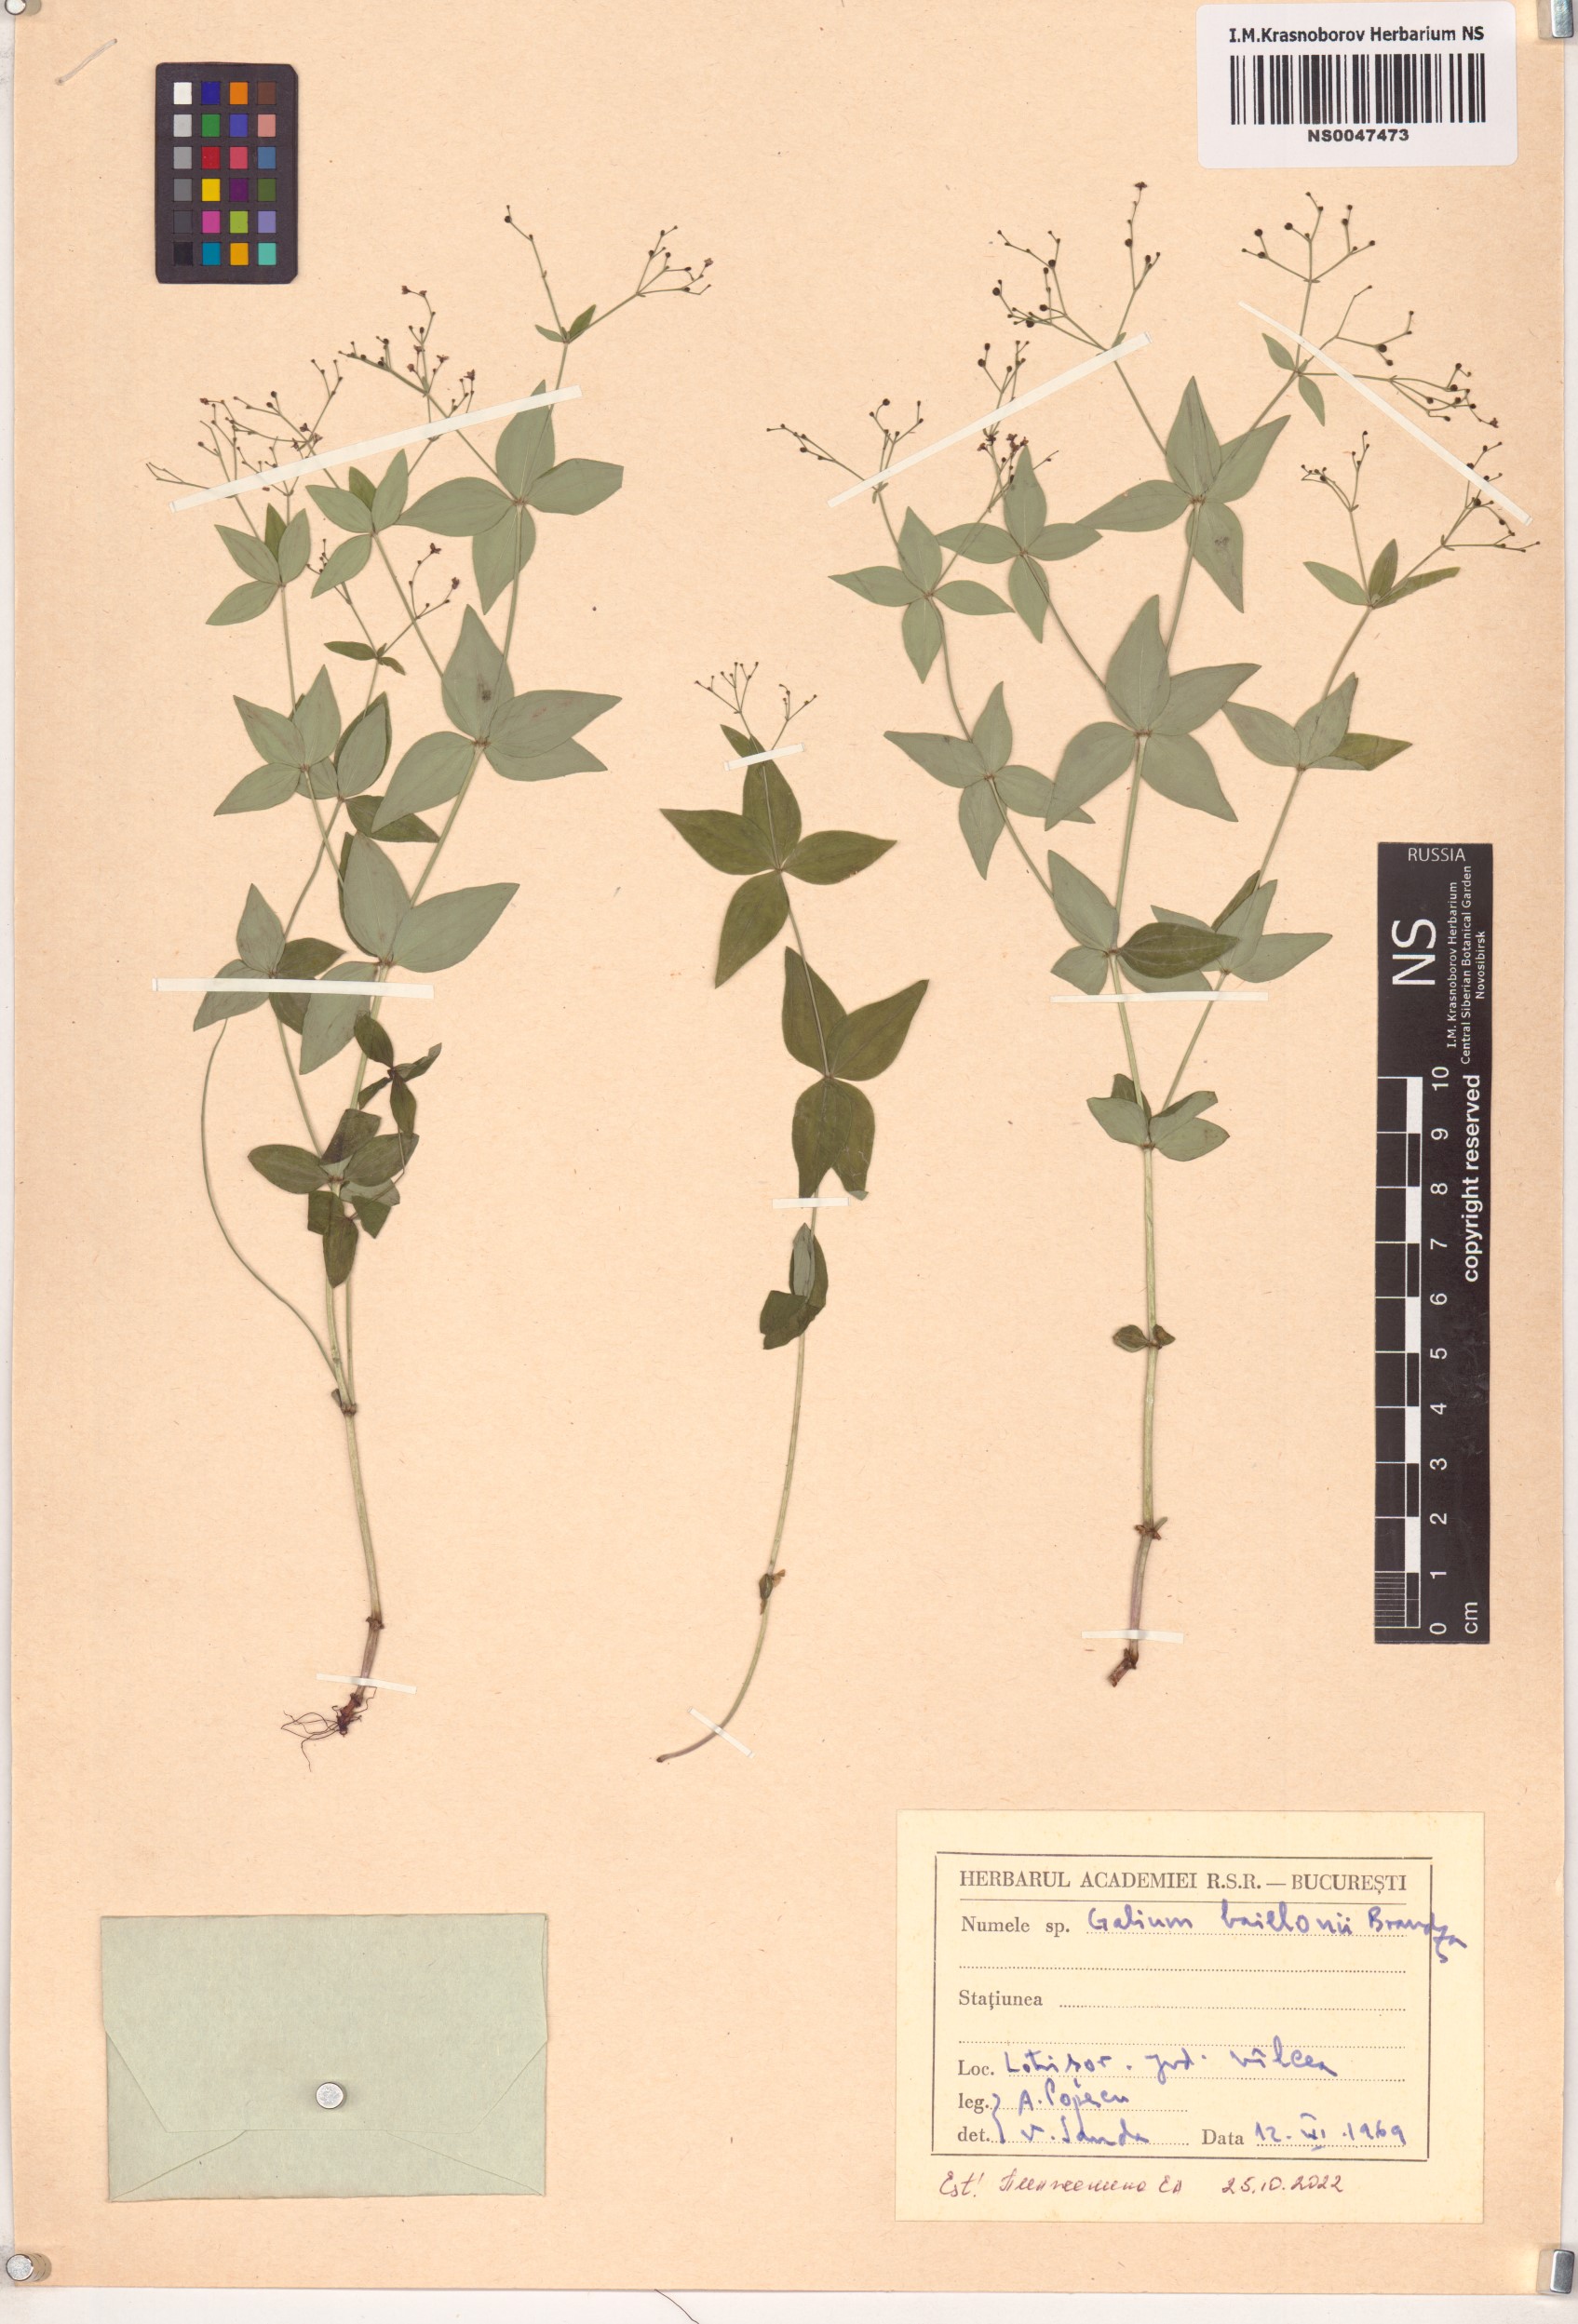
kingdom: Plantae
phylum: Tracheophyta
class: Magnoliopsida
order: Gentianales
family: Rubiaceae
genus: Galium
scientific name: Galium baillonii
